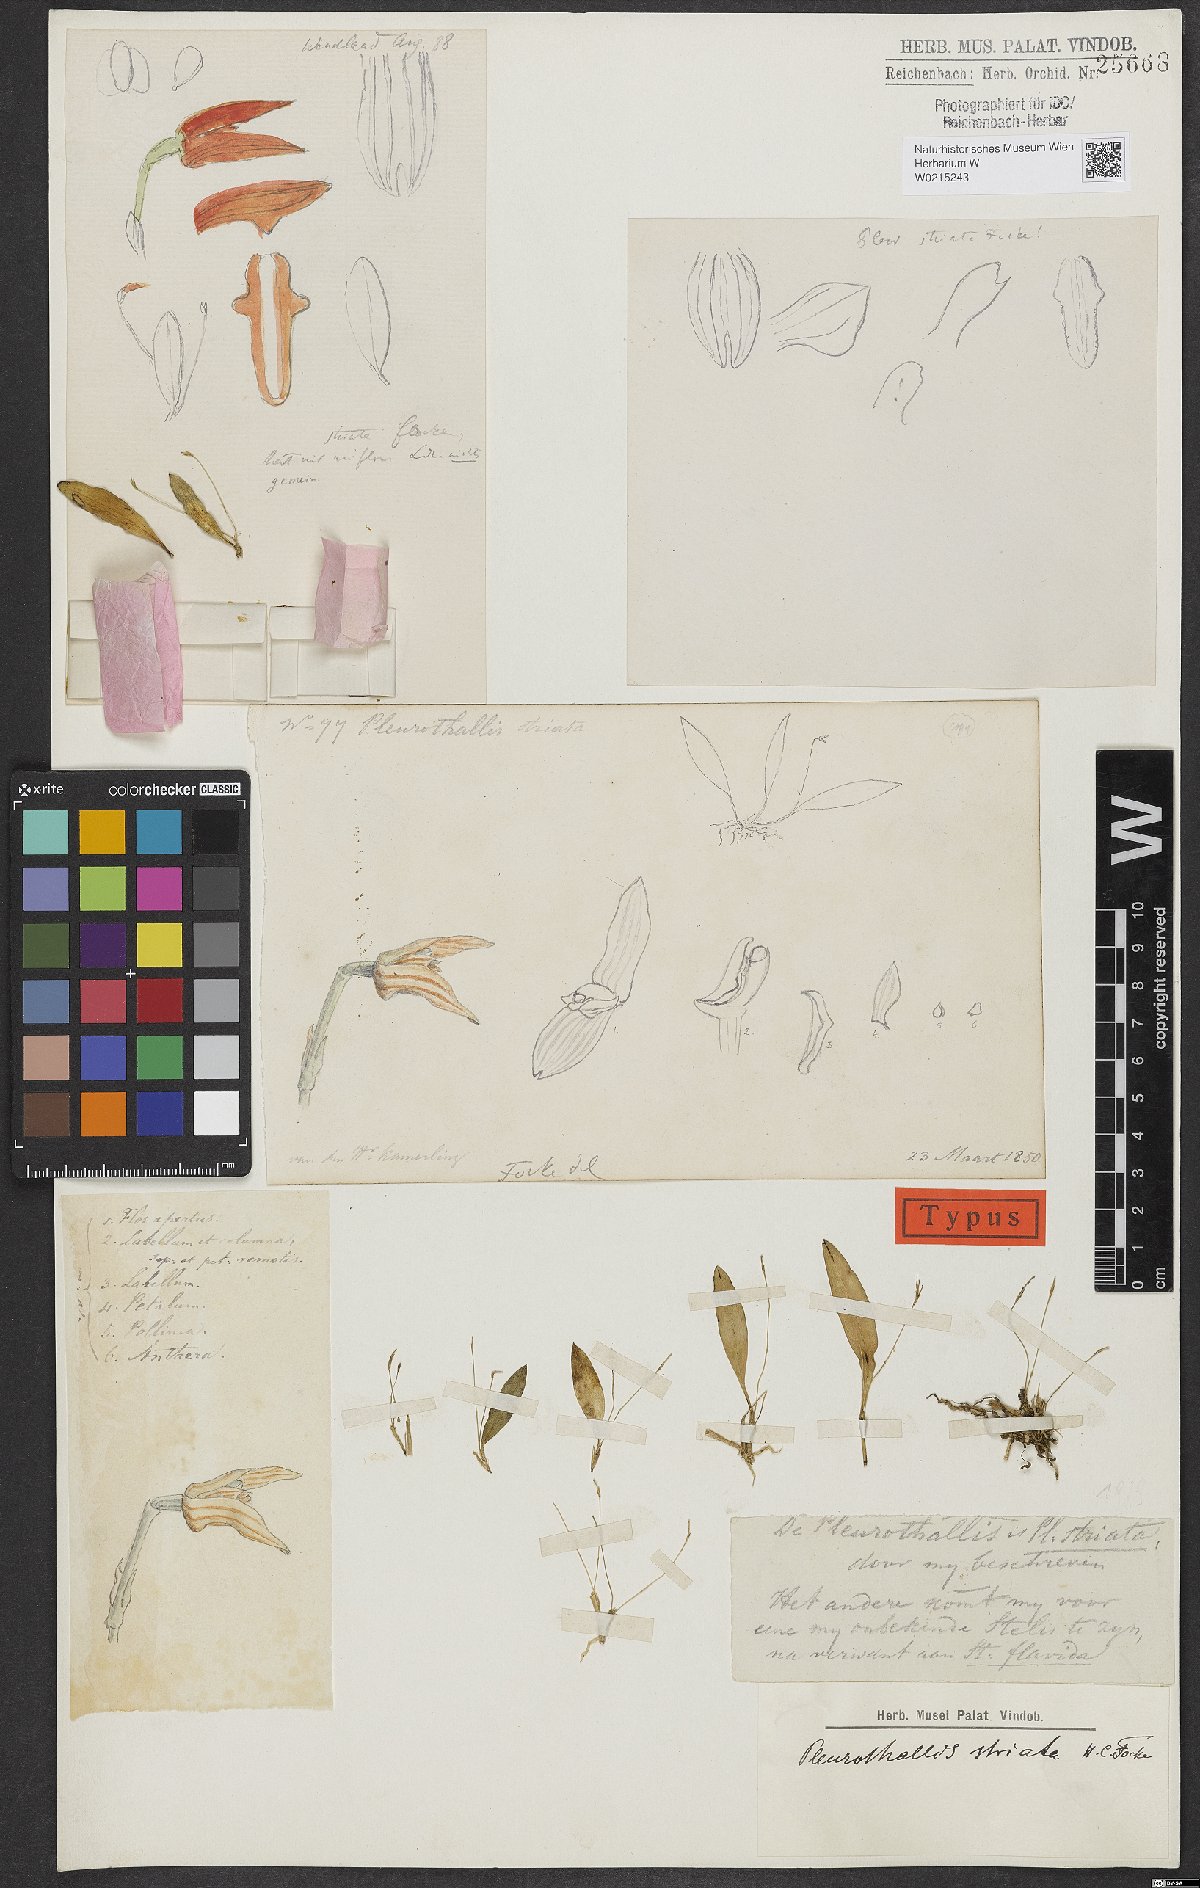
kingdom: Plantae
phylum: Tracheophyta
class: Liliopsida
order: Asparagales
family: Orchidaceae
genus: Specklinia
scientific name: Specklinia striata
